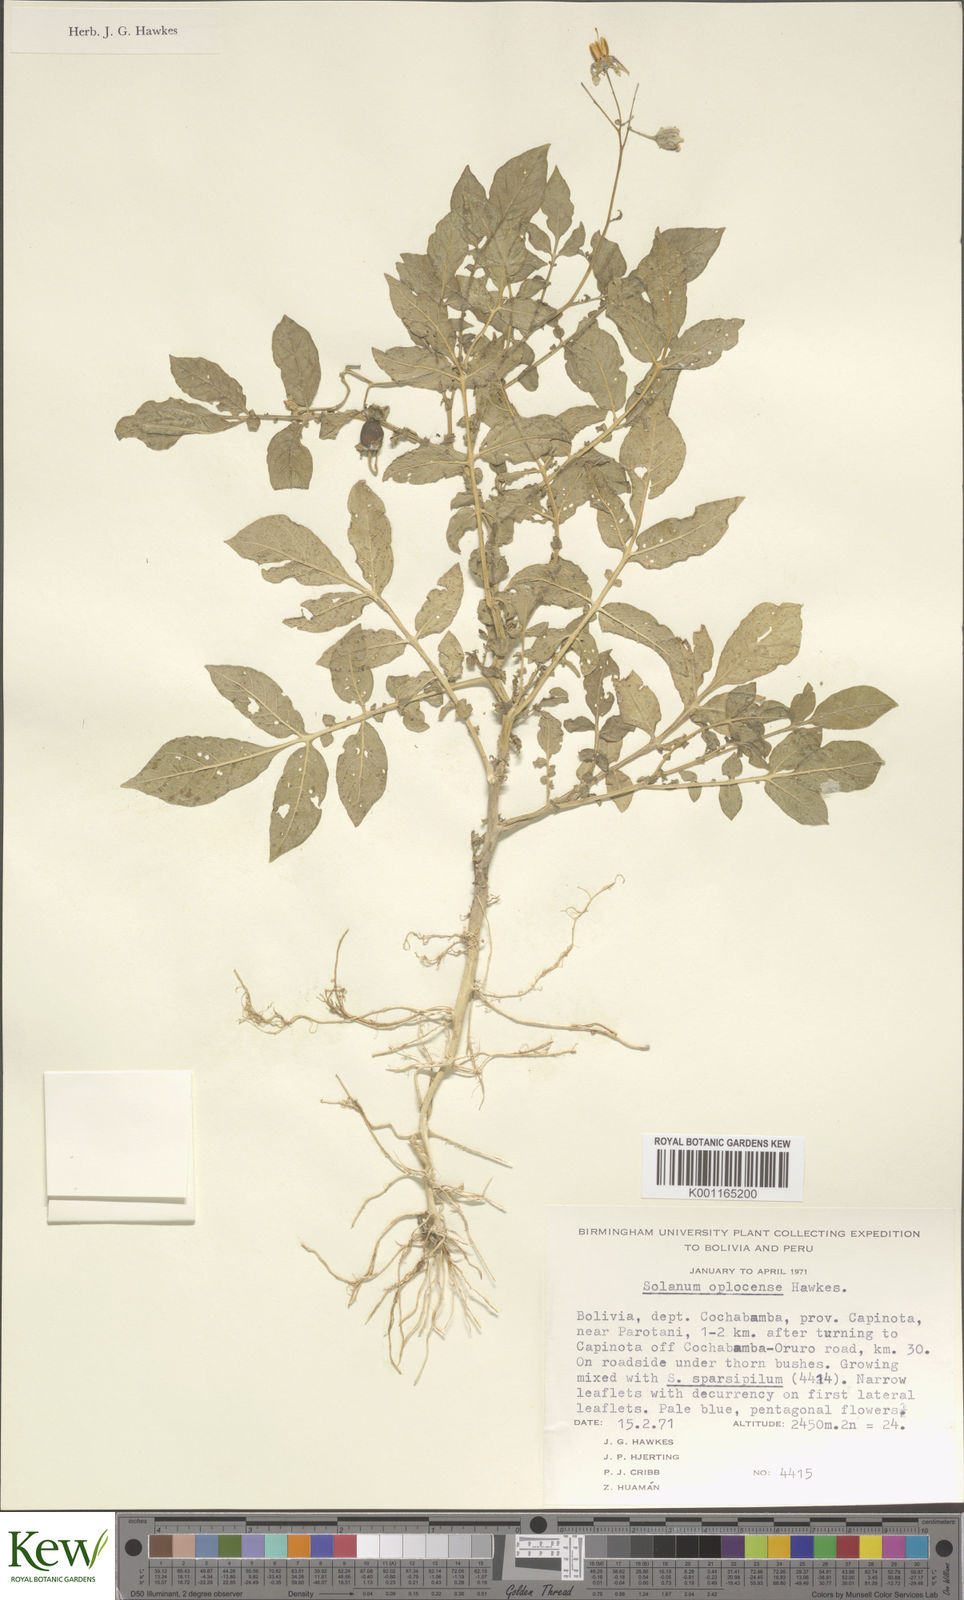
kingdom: Plantae
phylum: Tracheophyta
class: Magnoliopsida
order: Solanales
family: Solanaceae
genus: Solanum
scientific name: Solanum brevicaule
